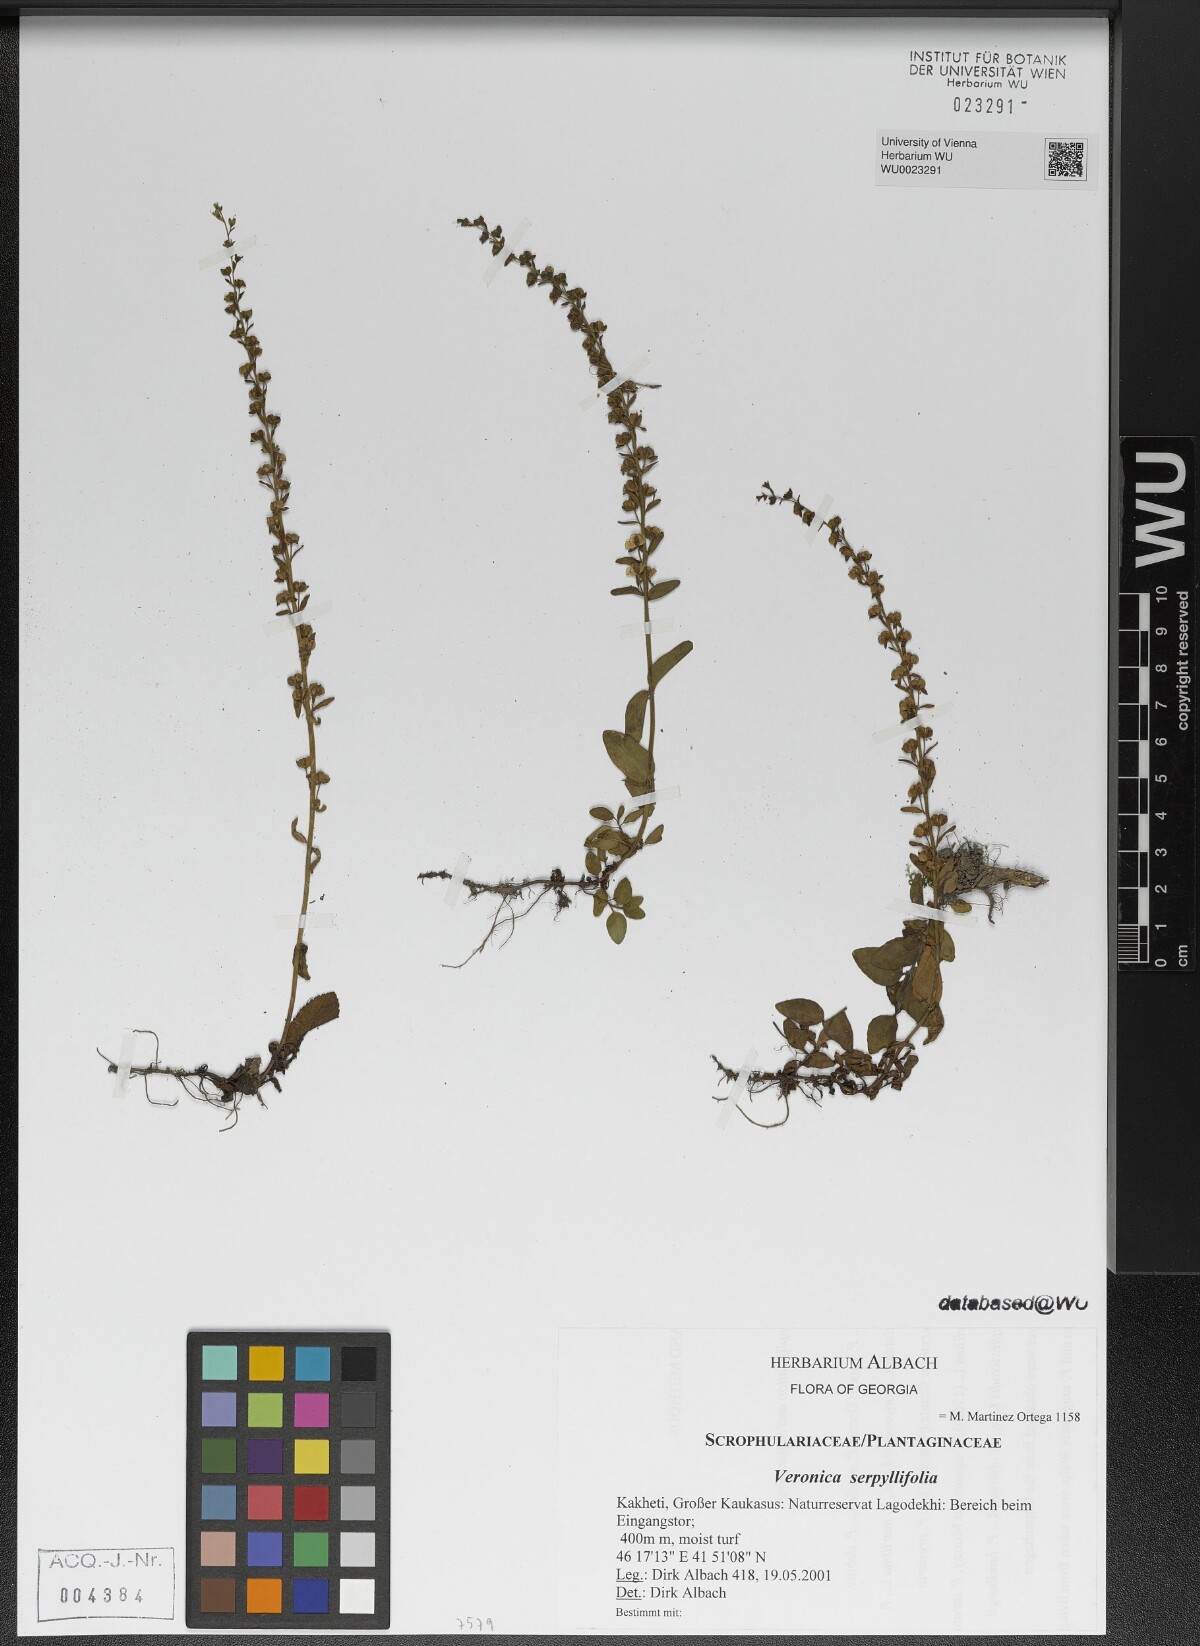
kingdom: Plantae
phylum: Tracheophyta
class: Magnoliopsida
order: Lamiales
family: Plantaginaceae
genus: Veronica
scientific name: Veronica serpyllifolia
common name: Thyme-leaved speedwell
